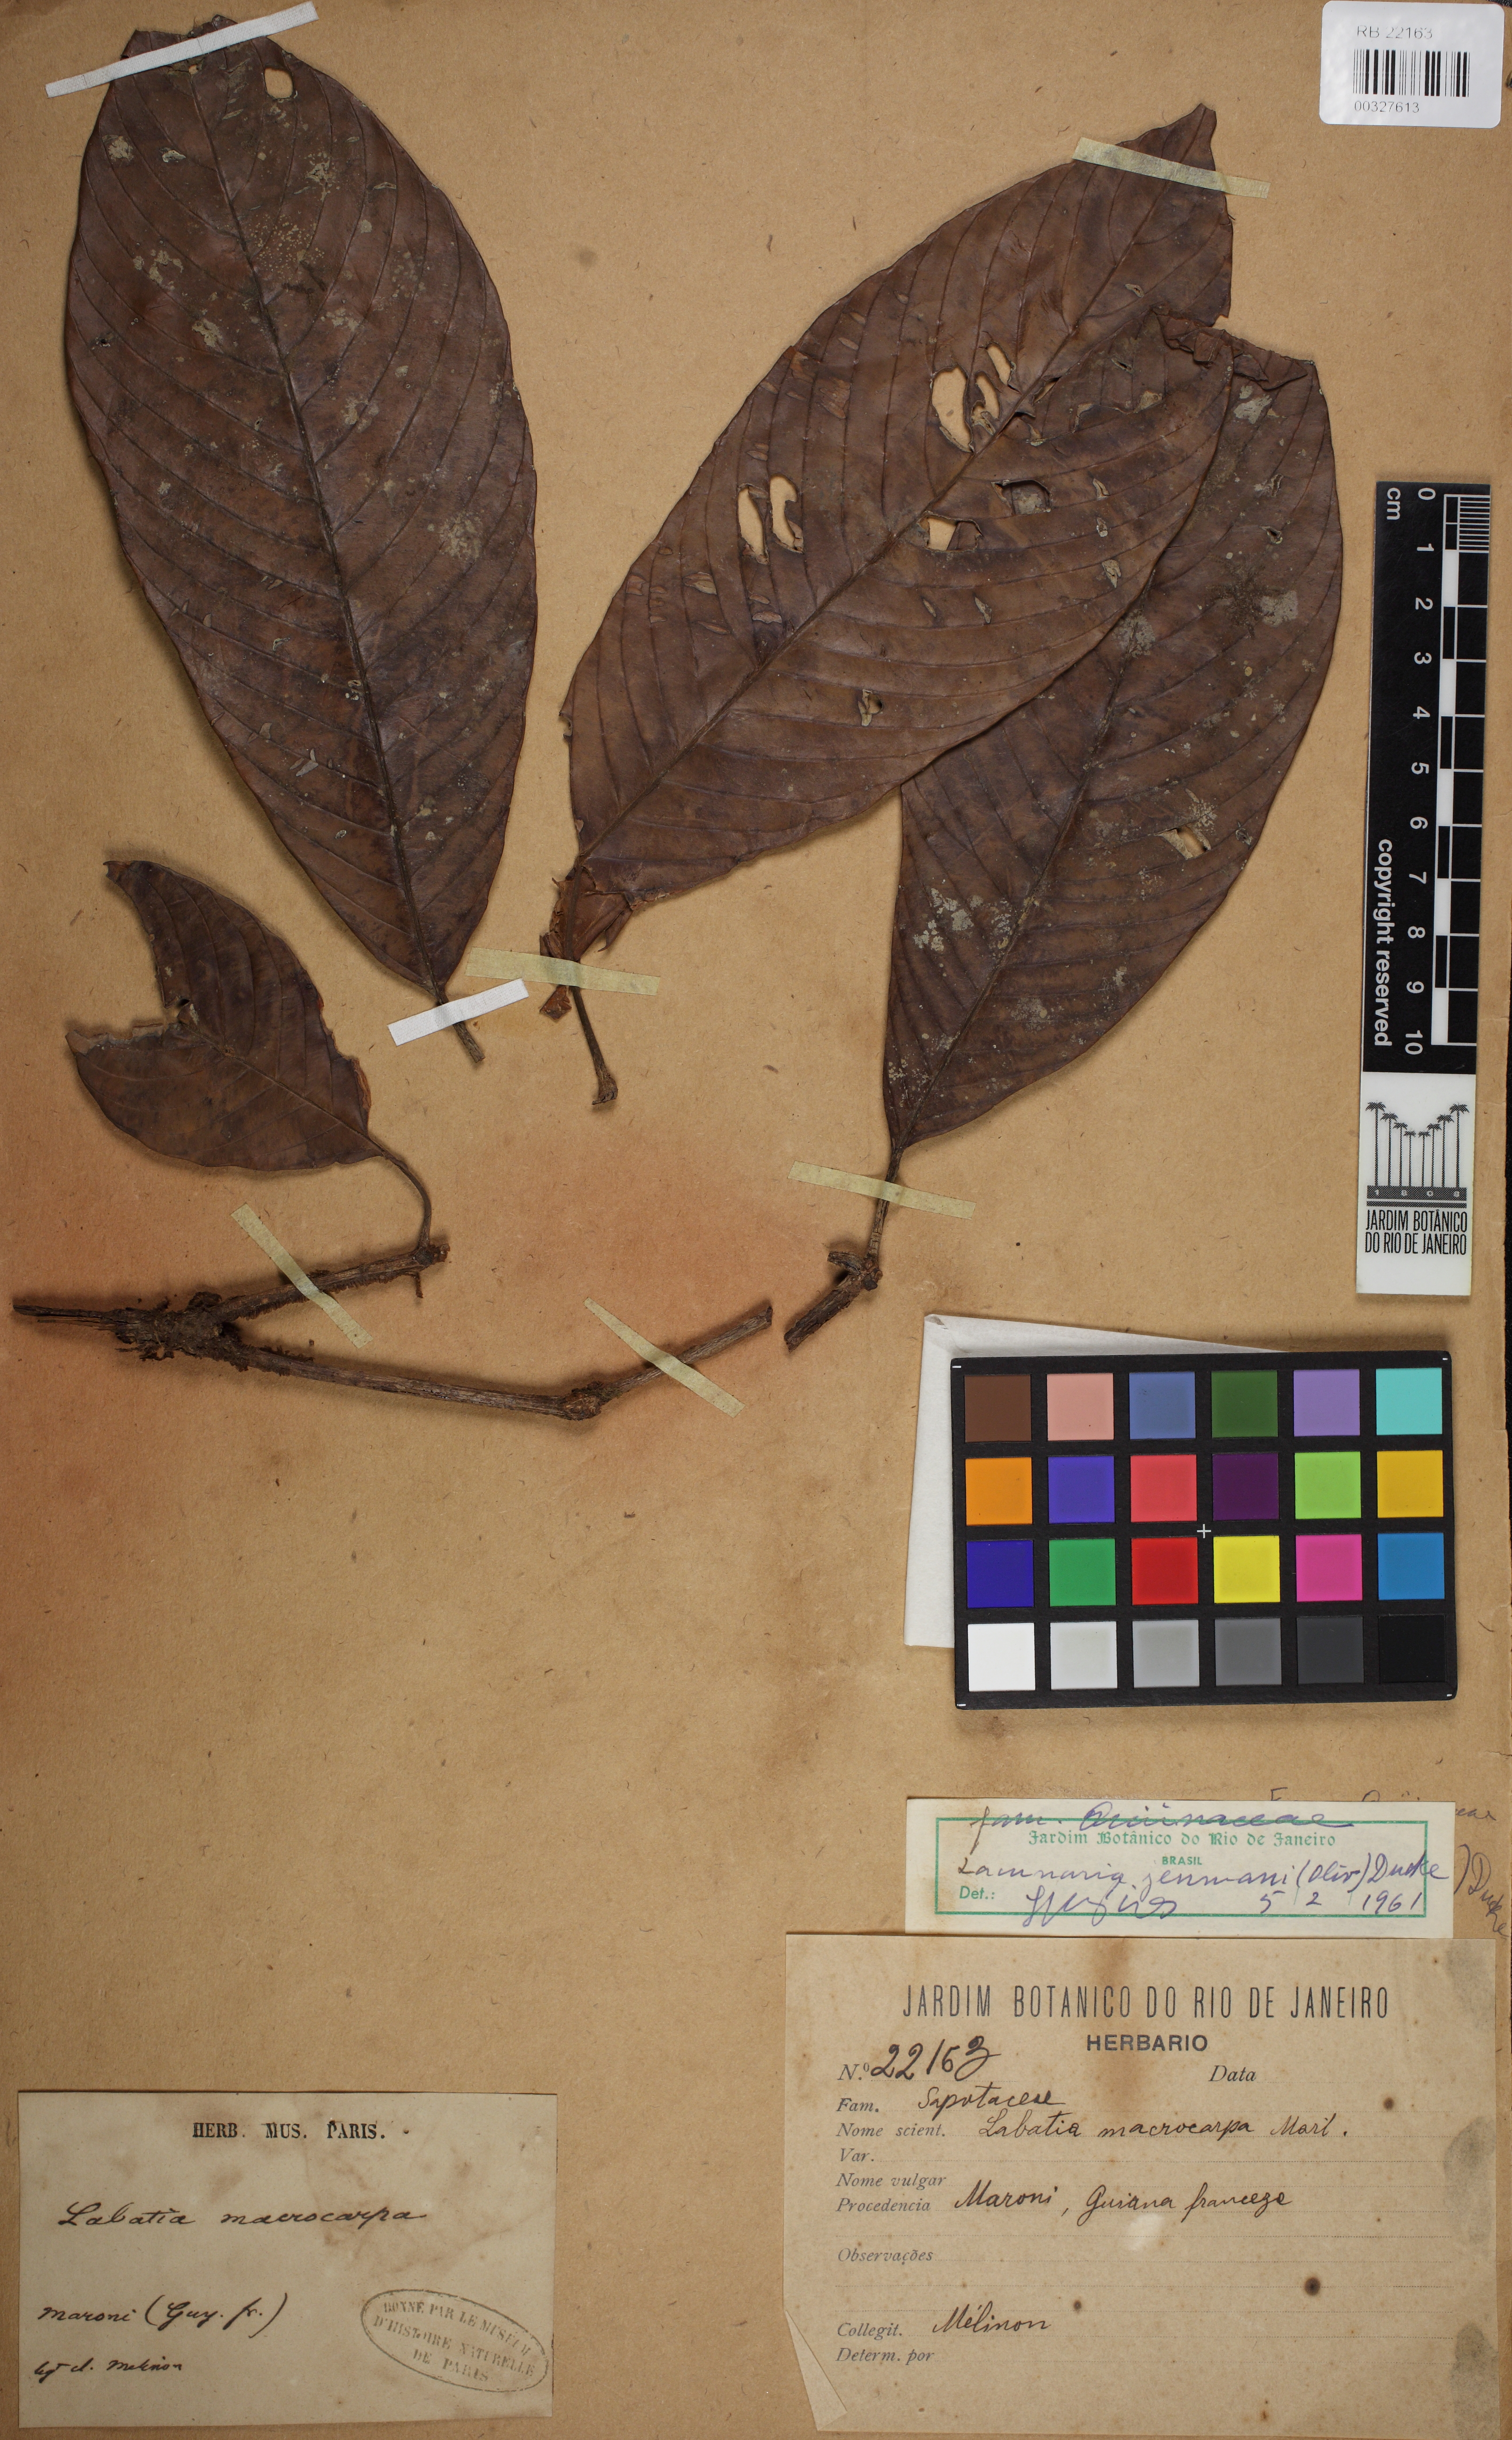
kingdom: Plantae
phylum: Tracheophyta
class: Magnoliopsida
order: Malpighiales
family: Quiinaceae
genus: Lacunaria
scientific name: Lacunaria jenmanii
